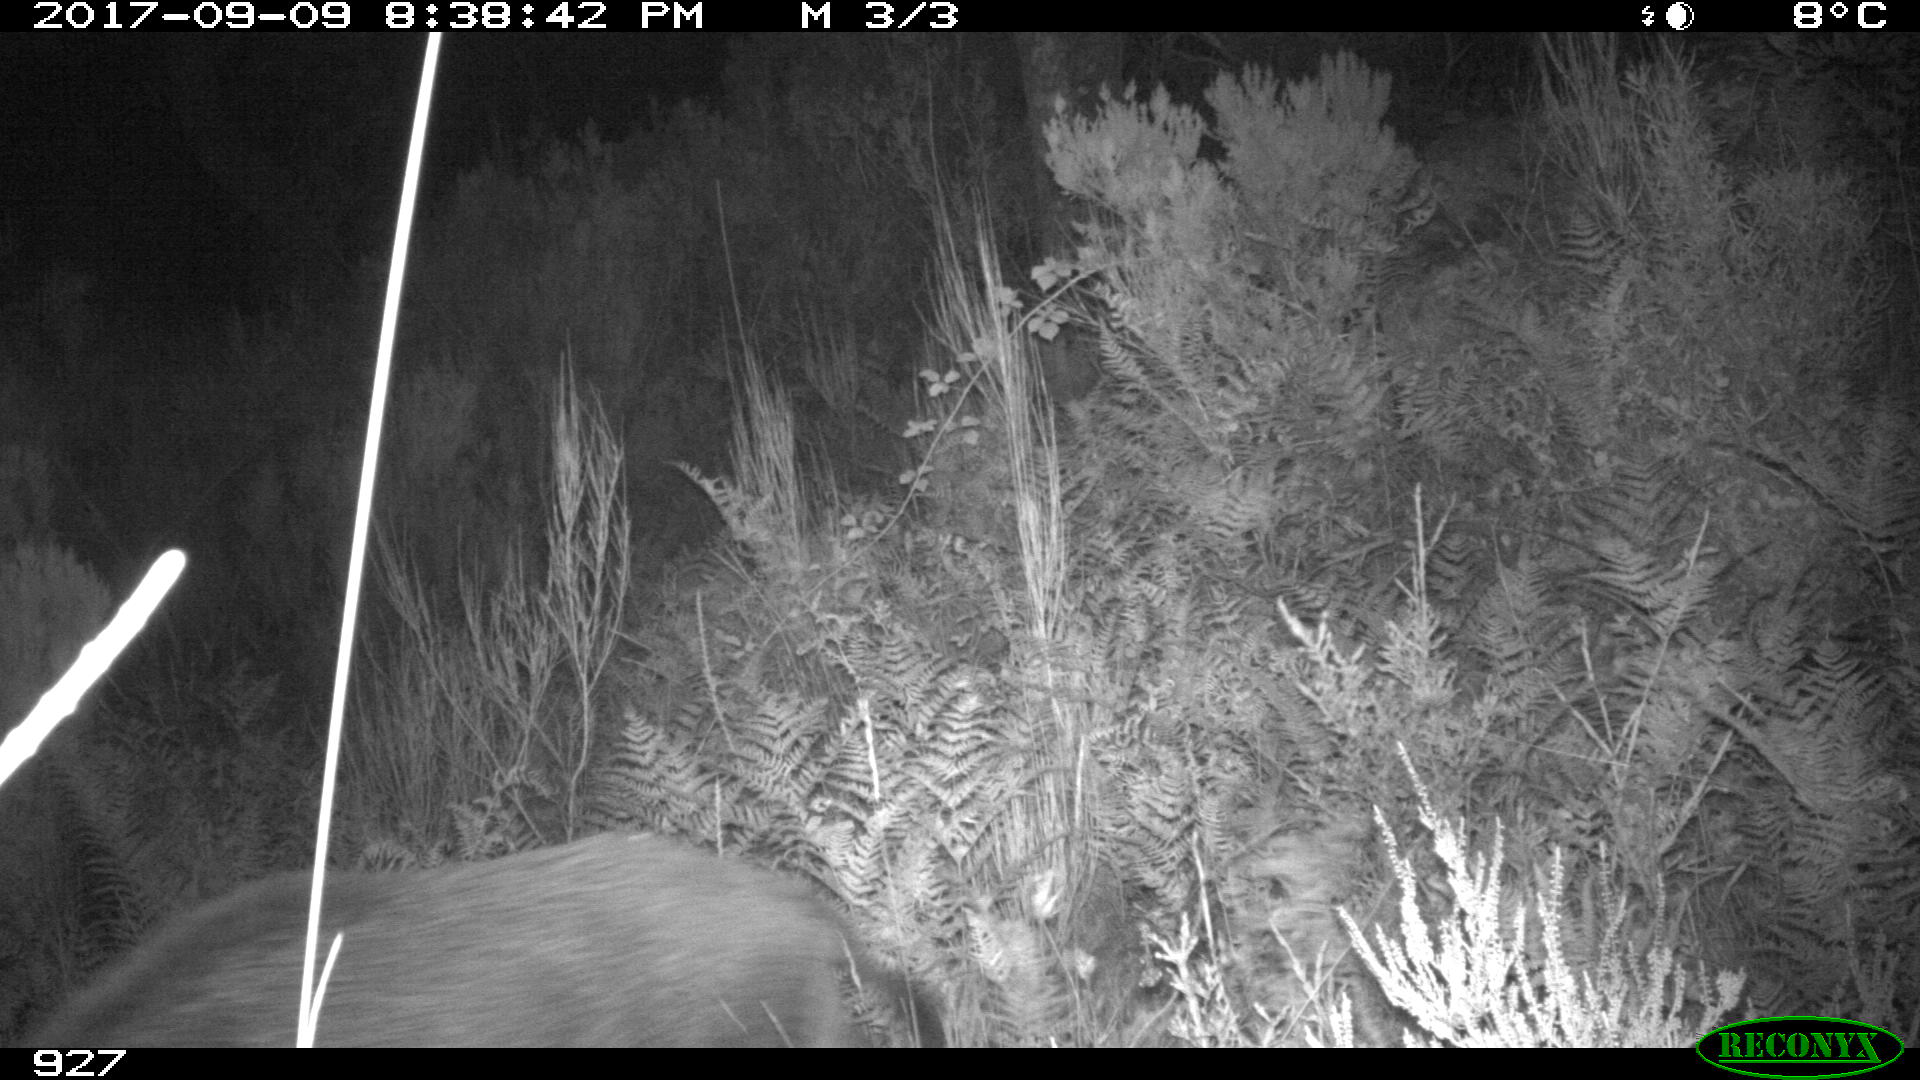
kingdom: Animalia
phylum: Chordata
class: Mammalia
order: Artiodactyla
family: Suidae
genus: Sus
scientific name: Sus scrofa
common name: Wild boar
